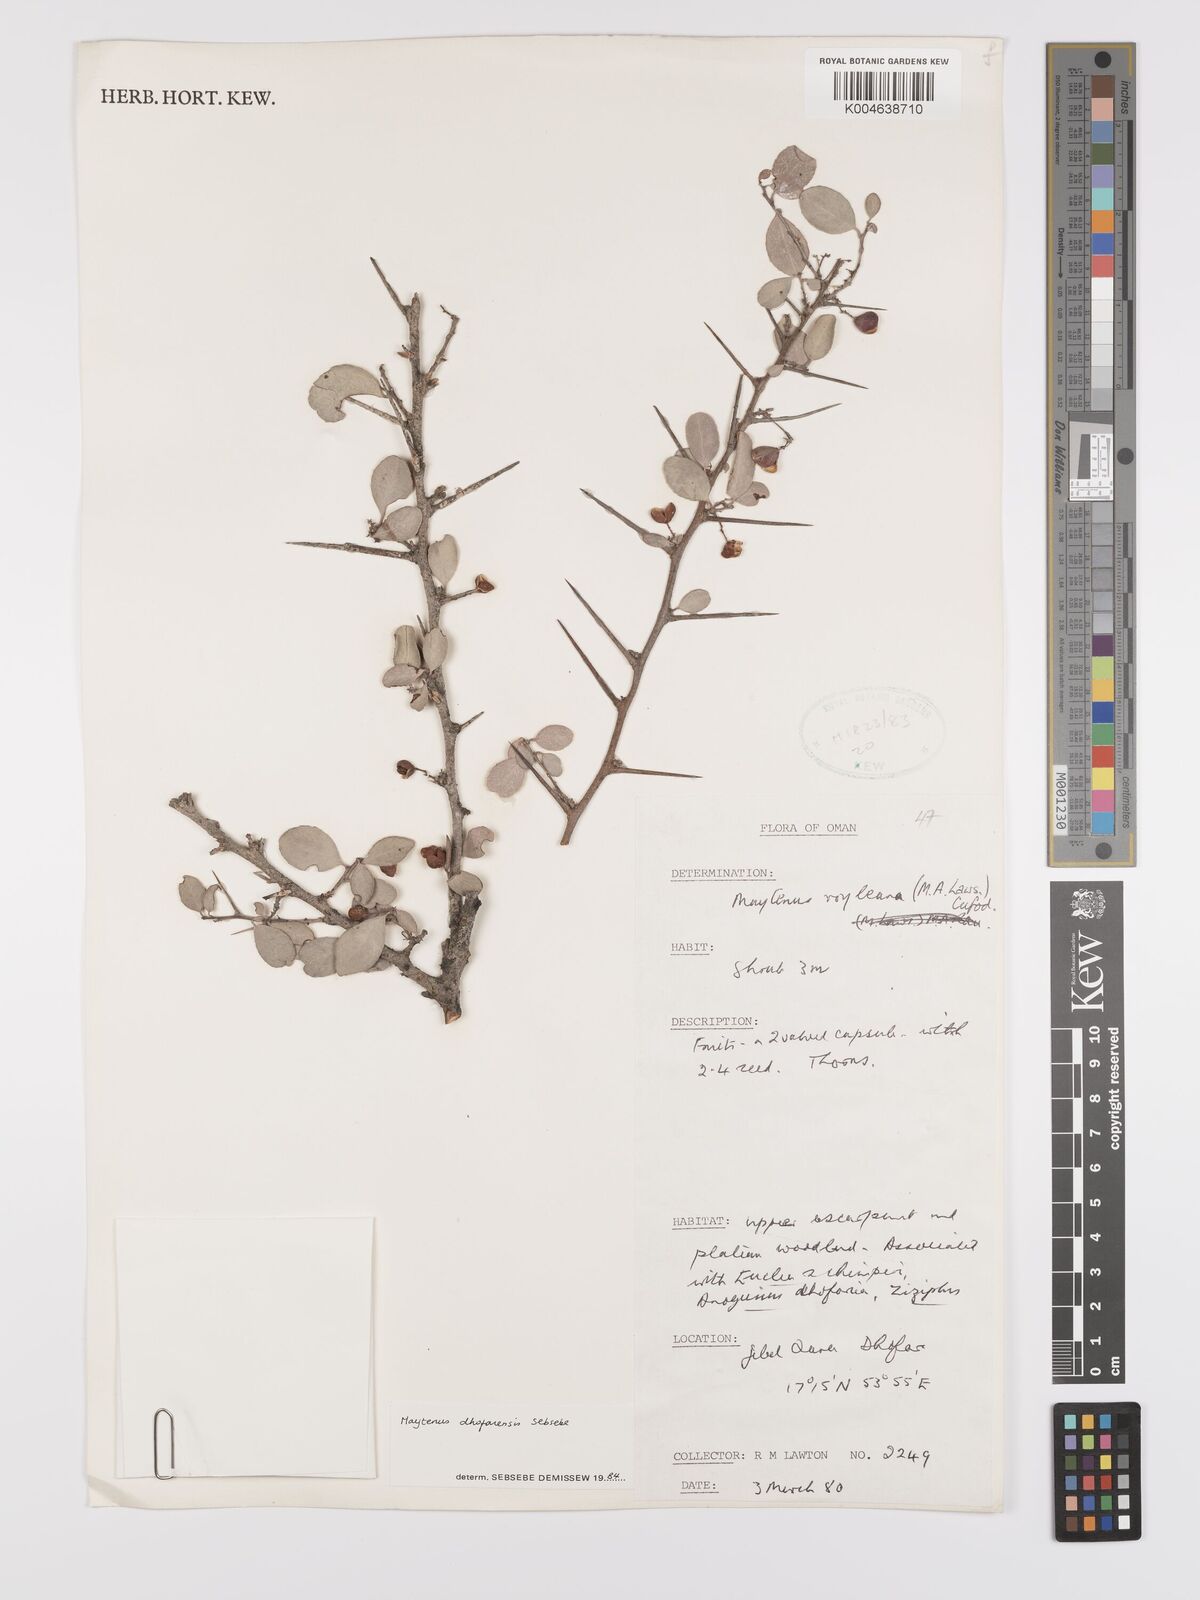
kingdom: Plantae
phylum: Tracheophyta
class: Magnoliopsida
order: Celastrales
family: Celastraceae
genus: Gymnosporia
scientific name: Gymnosporia dhofarensis
